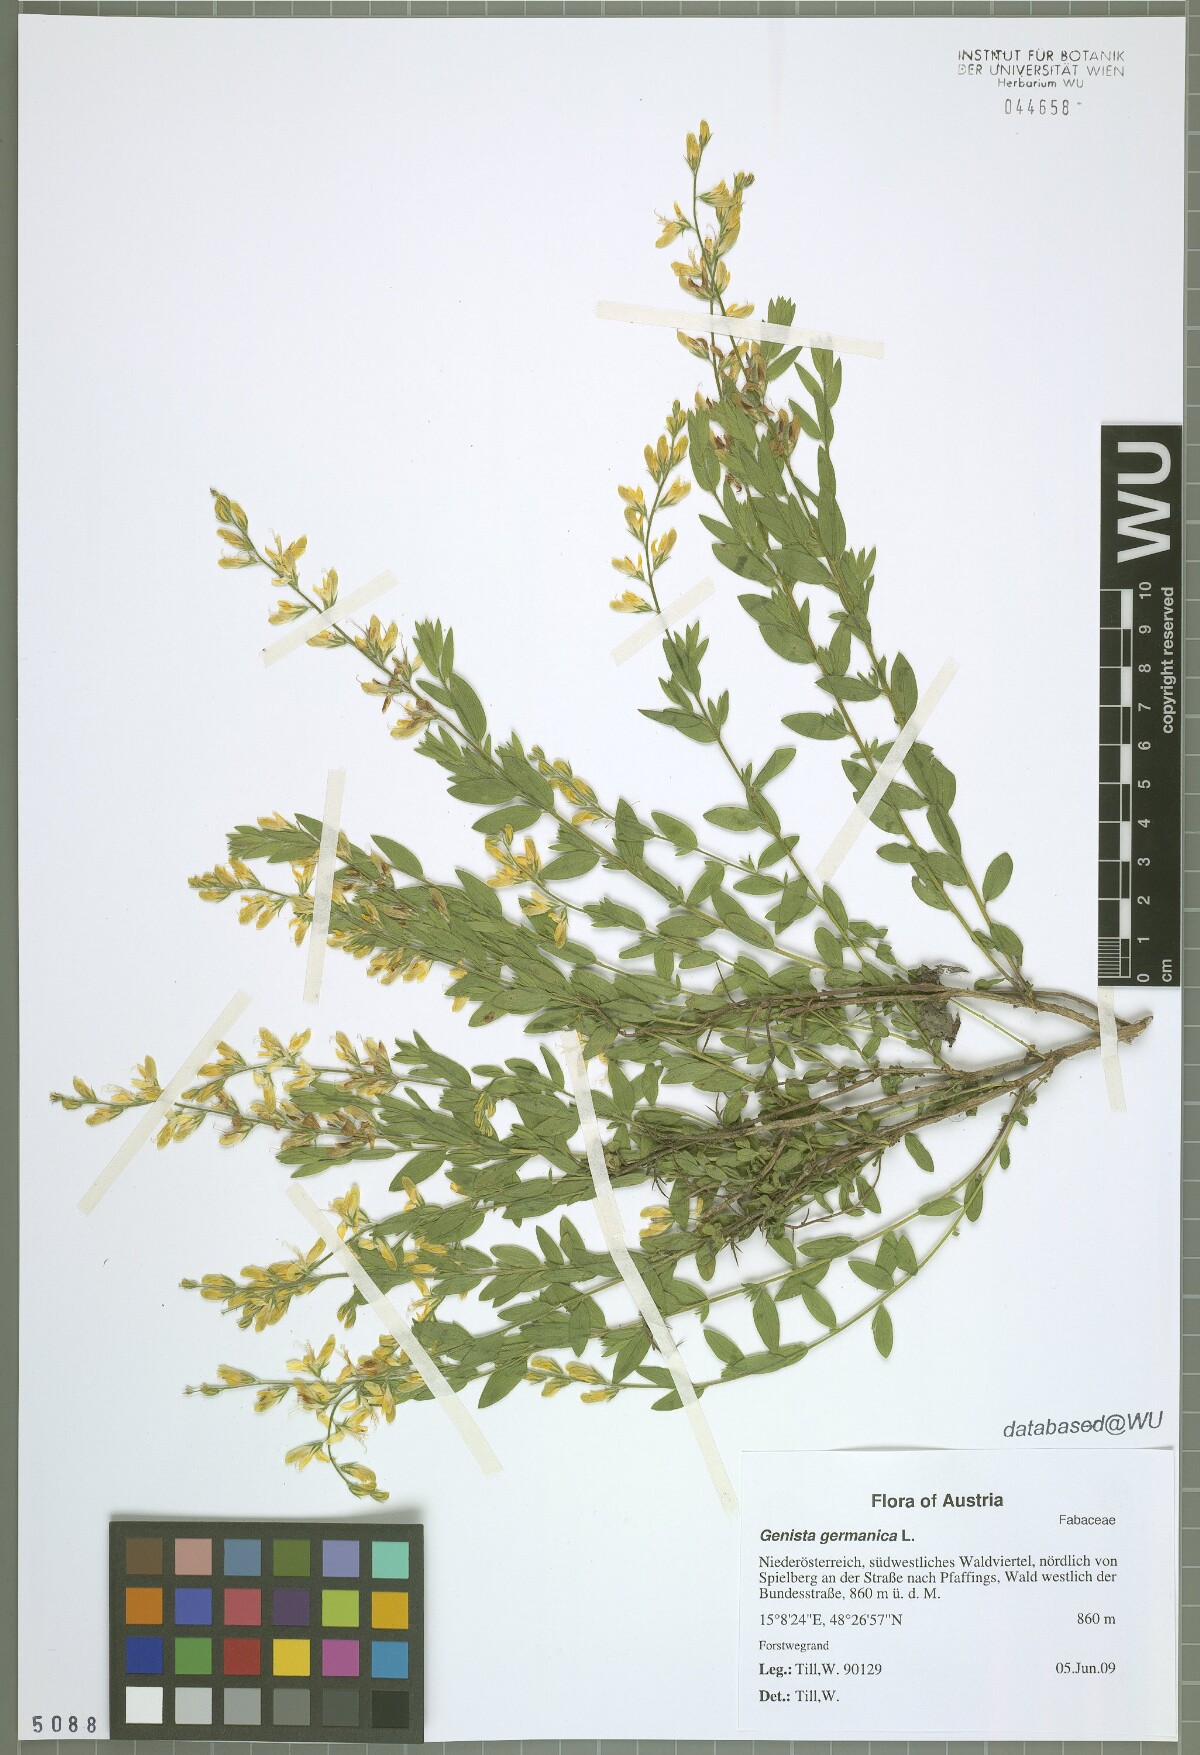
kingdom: Plantae
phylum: Tracheophyta
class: Magnoliopsida
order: Fabales
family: Fabaceae
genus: Genista
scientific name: Genista germanica
